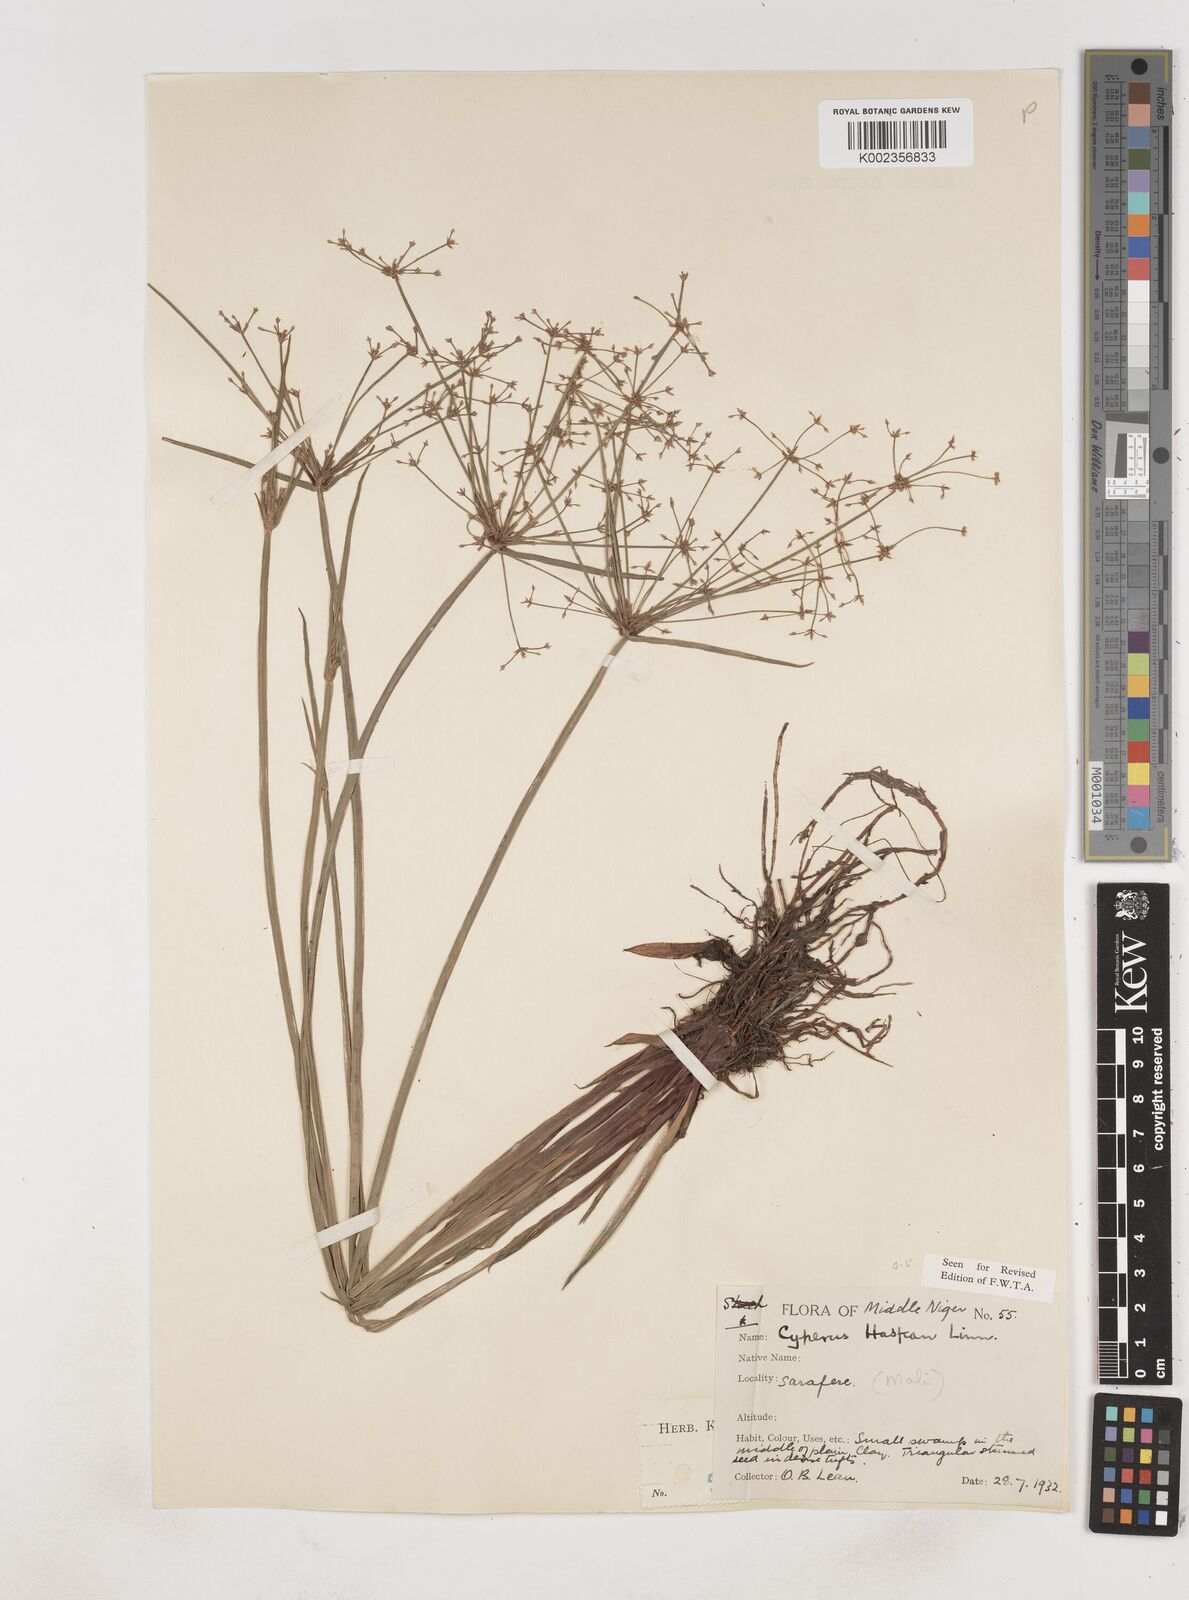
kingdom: Plantae
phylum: Tracheophyta
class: Liliopsida
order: Poales
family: Cyperaceae
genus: Cyperus
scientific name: Cyperus haspan
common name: Haspan flatsedge
